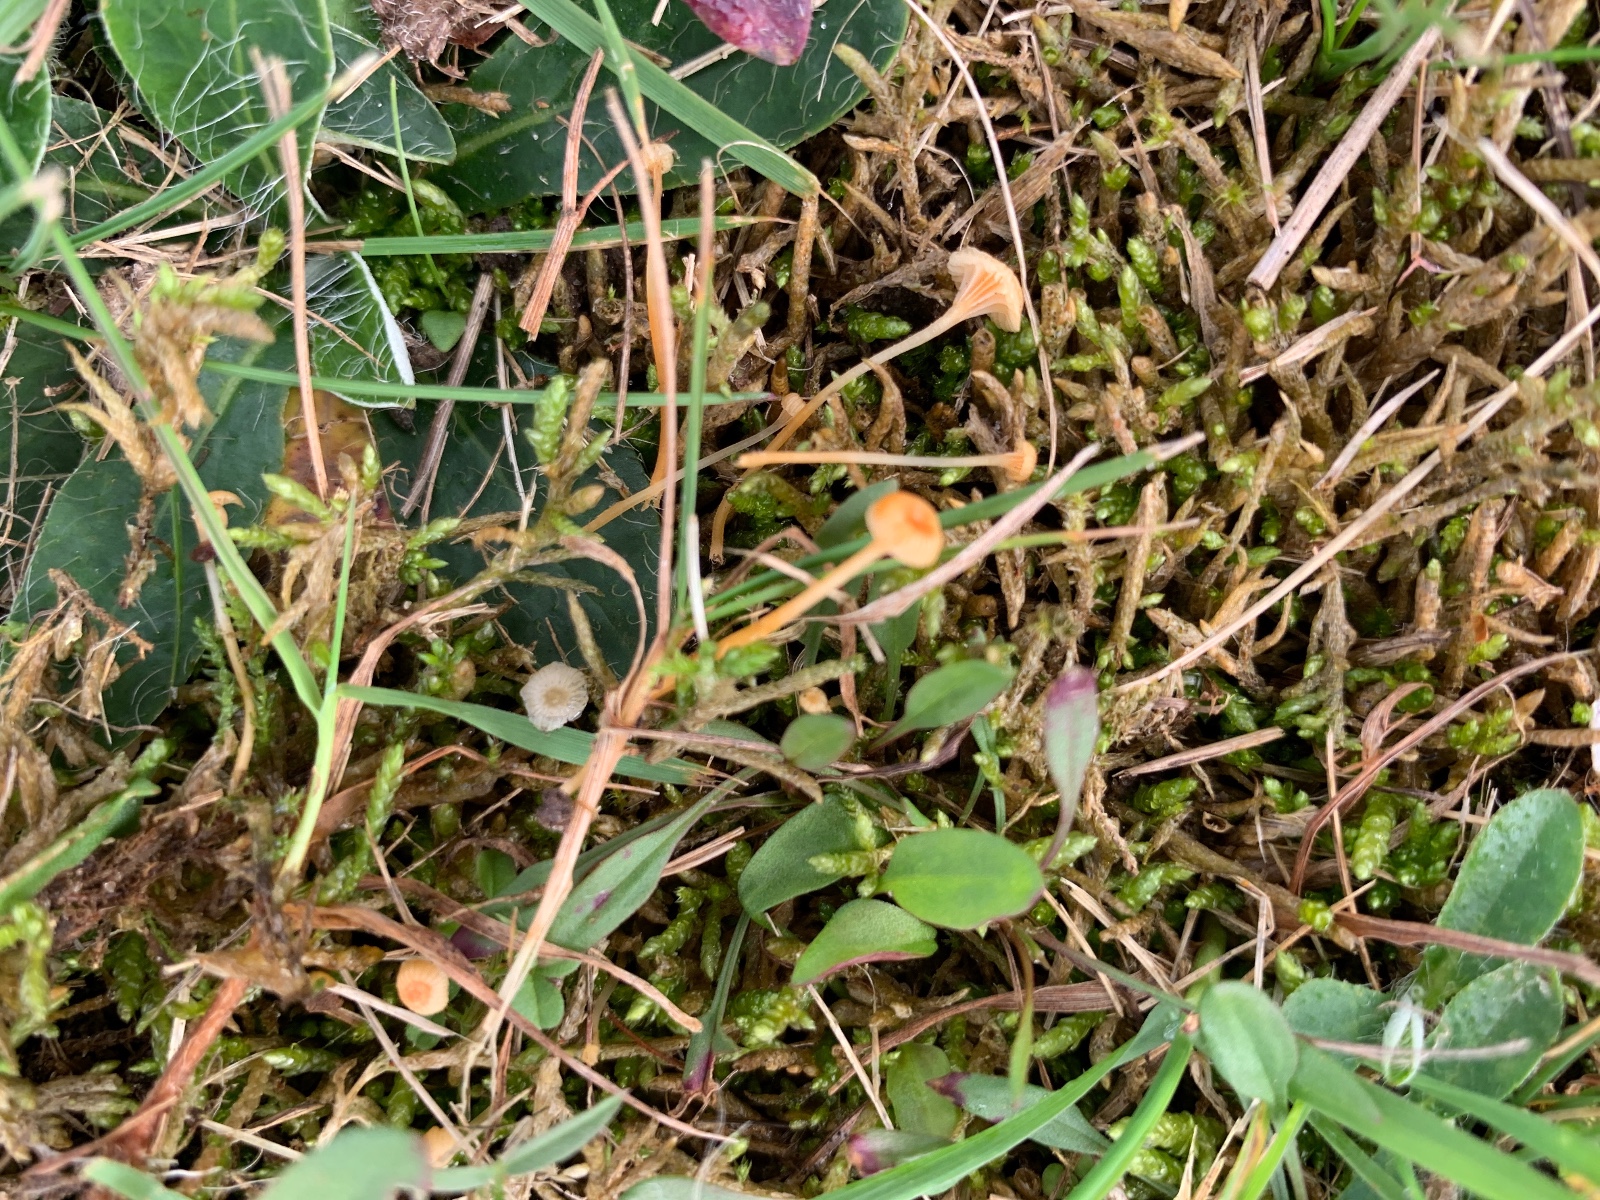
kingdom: Fungi
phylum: Basidiomycota
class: Agaricomycetes
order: Hymenochaetales
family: Rickenellaceae
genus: Rickenella
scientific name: Rickenella fibula
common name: orange mosnavlehat
